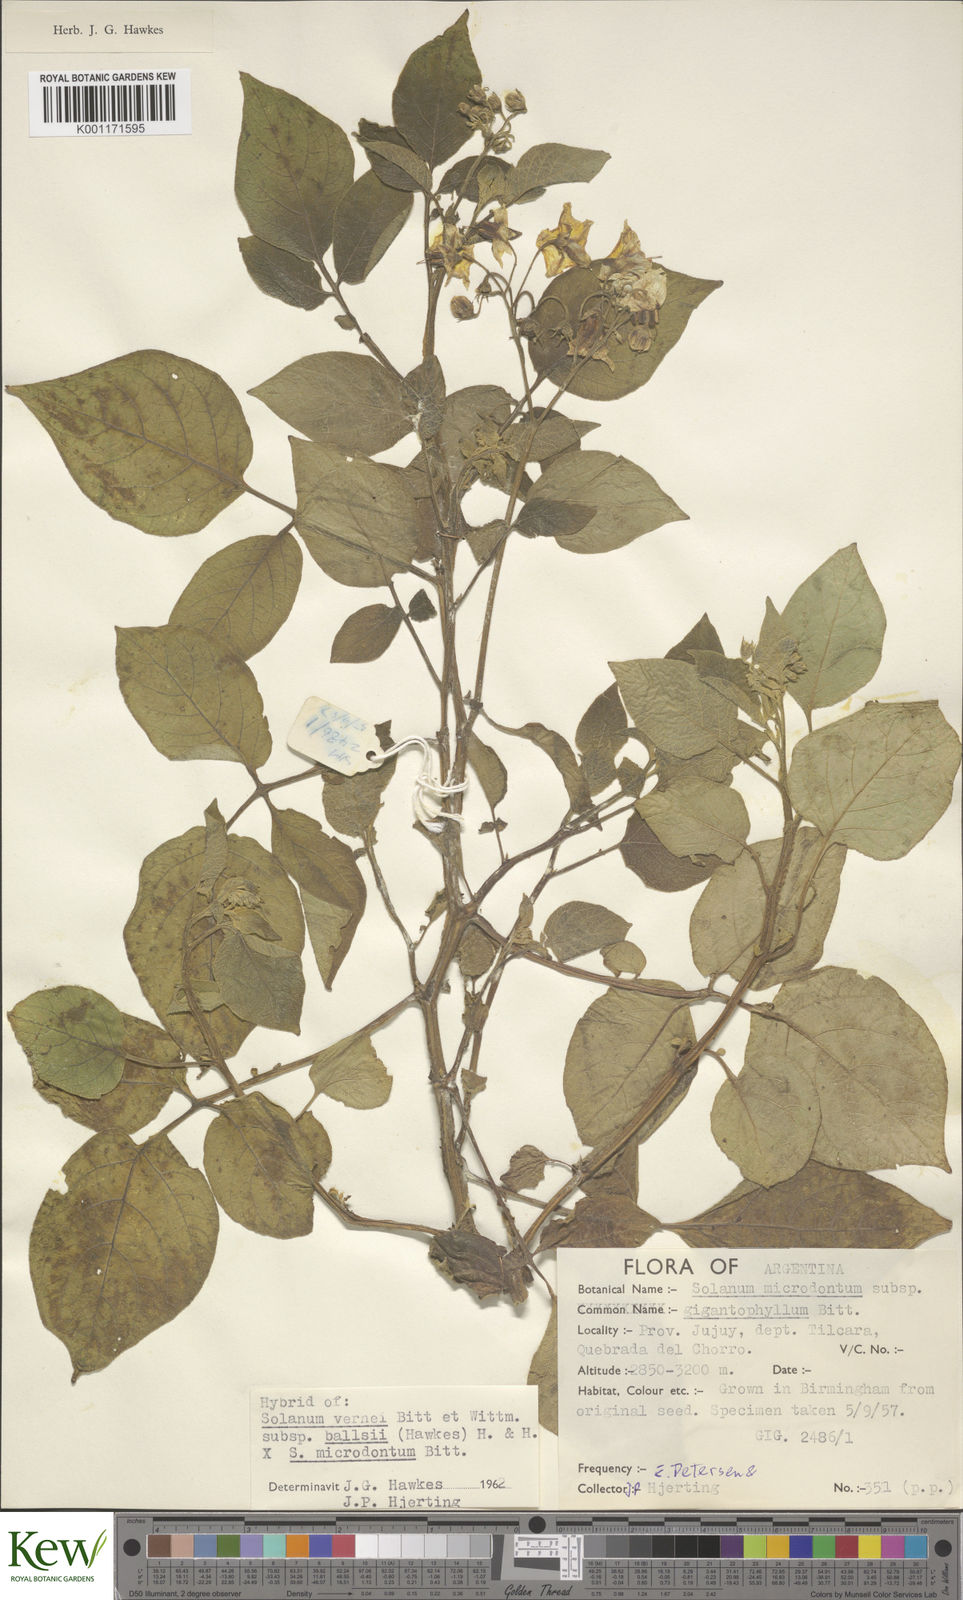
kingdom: Plantae
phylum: Tracheophyta
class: Magnoliopsida
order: Solanales
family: Solanaceae
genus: Solanum
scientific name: Solanum vernei
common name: Purple potato
